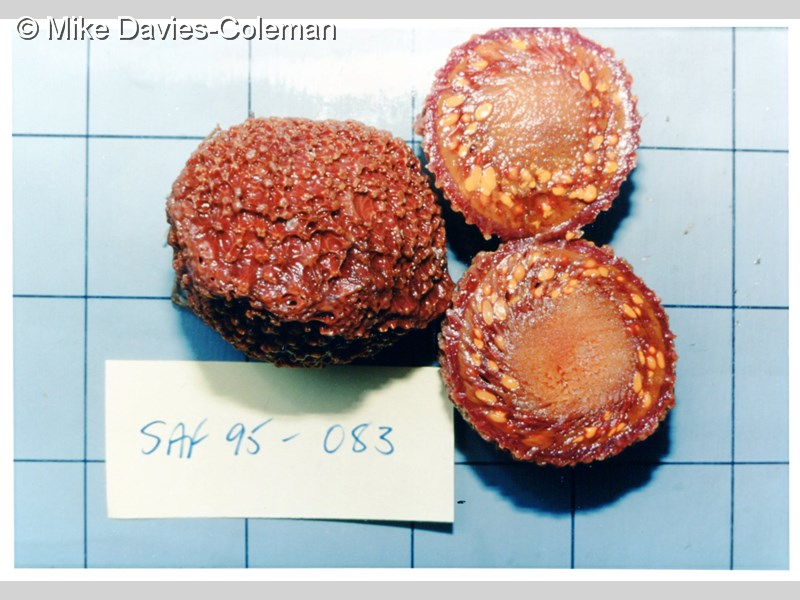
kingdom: Animalia
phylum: Porifera
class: Demospongiae
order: Tethyida
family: Tethyidae
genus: Tethya
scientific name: Tethya
